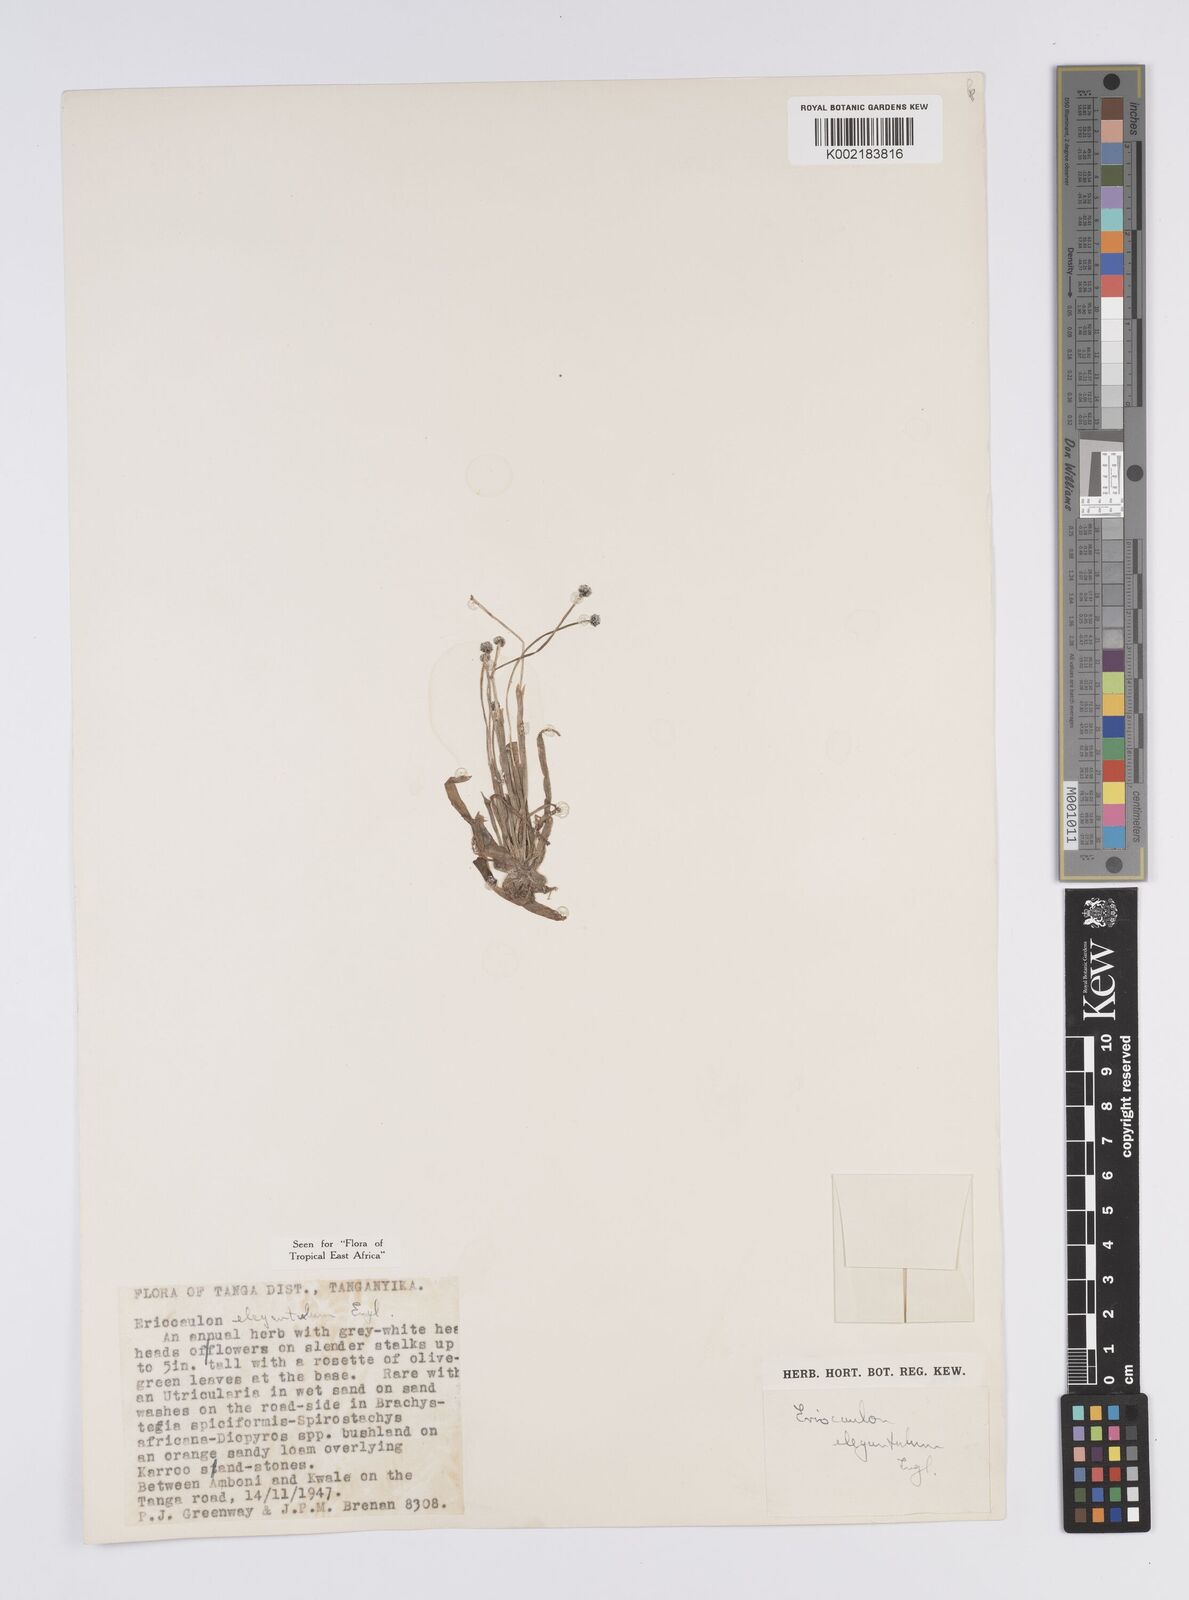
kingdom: Plantae
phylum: Tracheophyta
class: Liliopsida
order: Poales
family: Eriocaulaceae
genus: Eriocaulon
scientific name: Eriocaulon elegantulum
